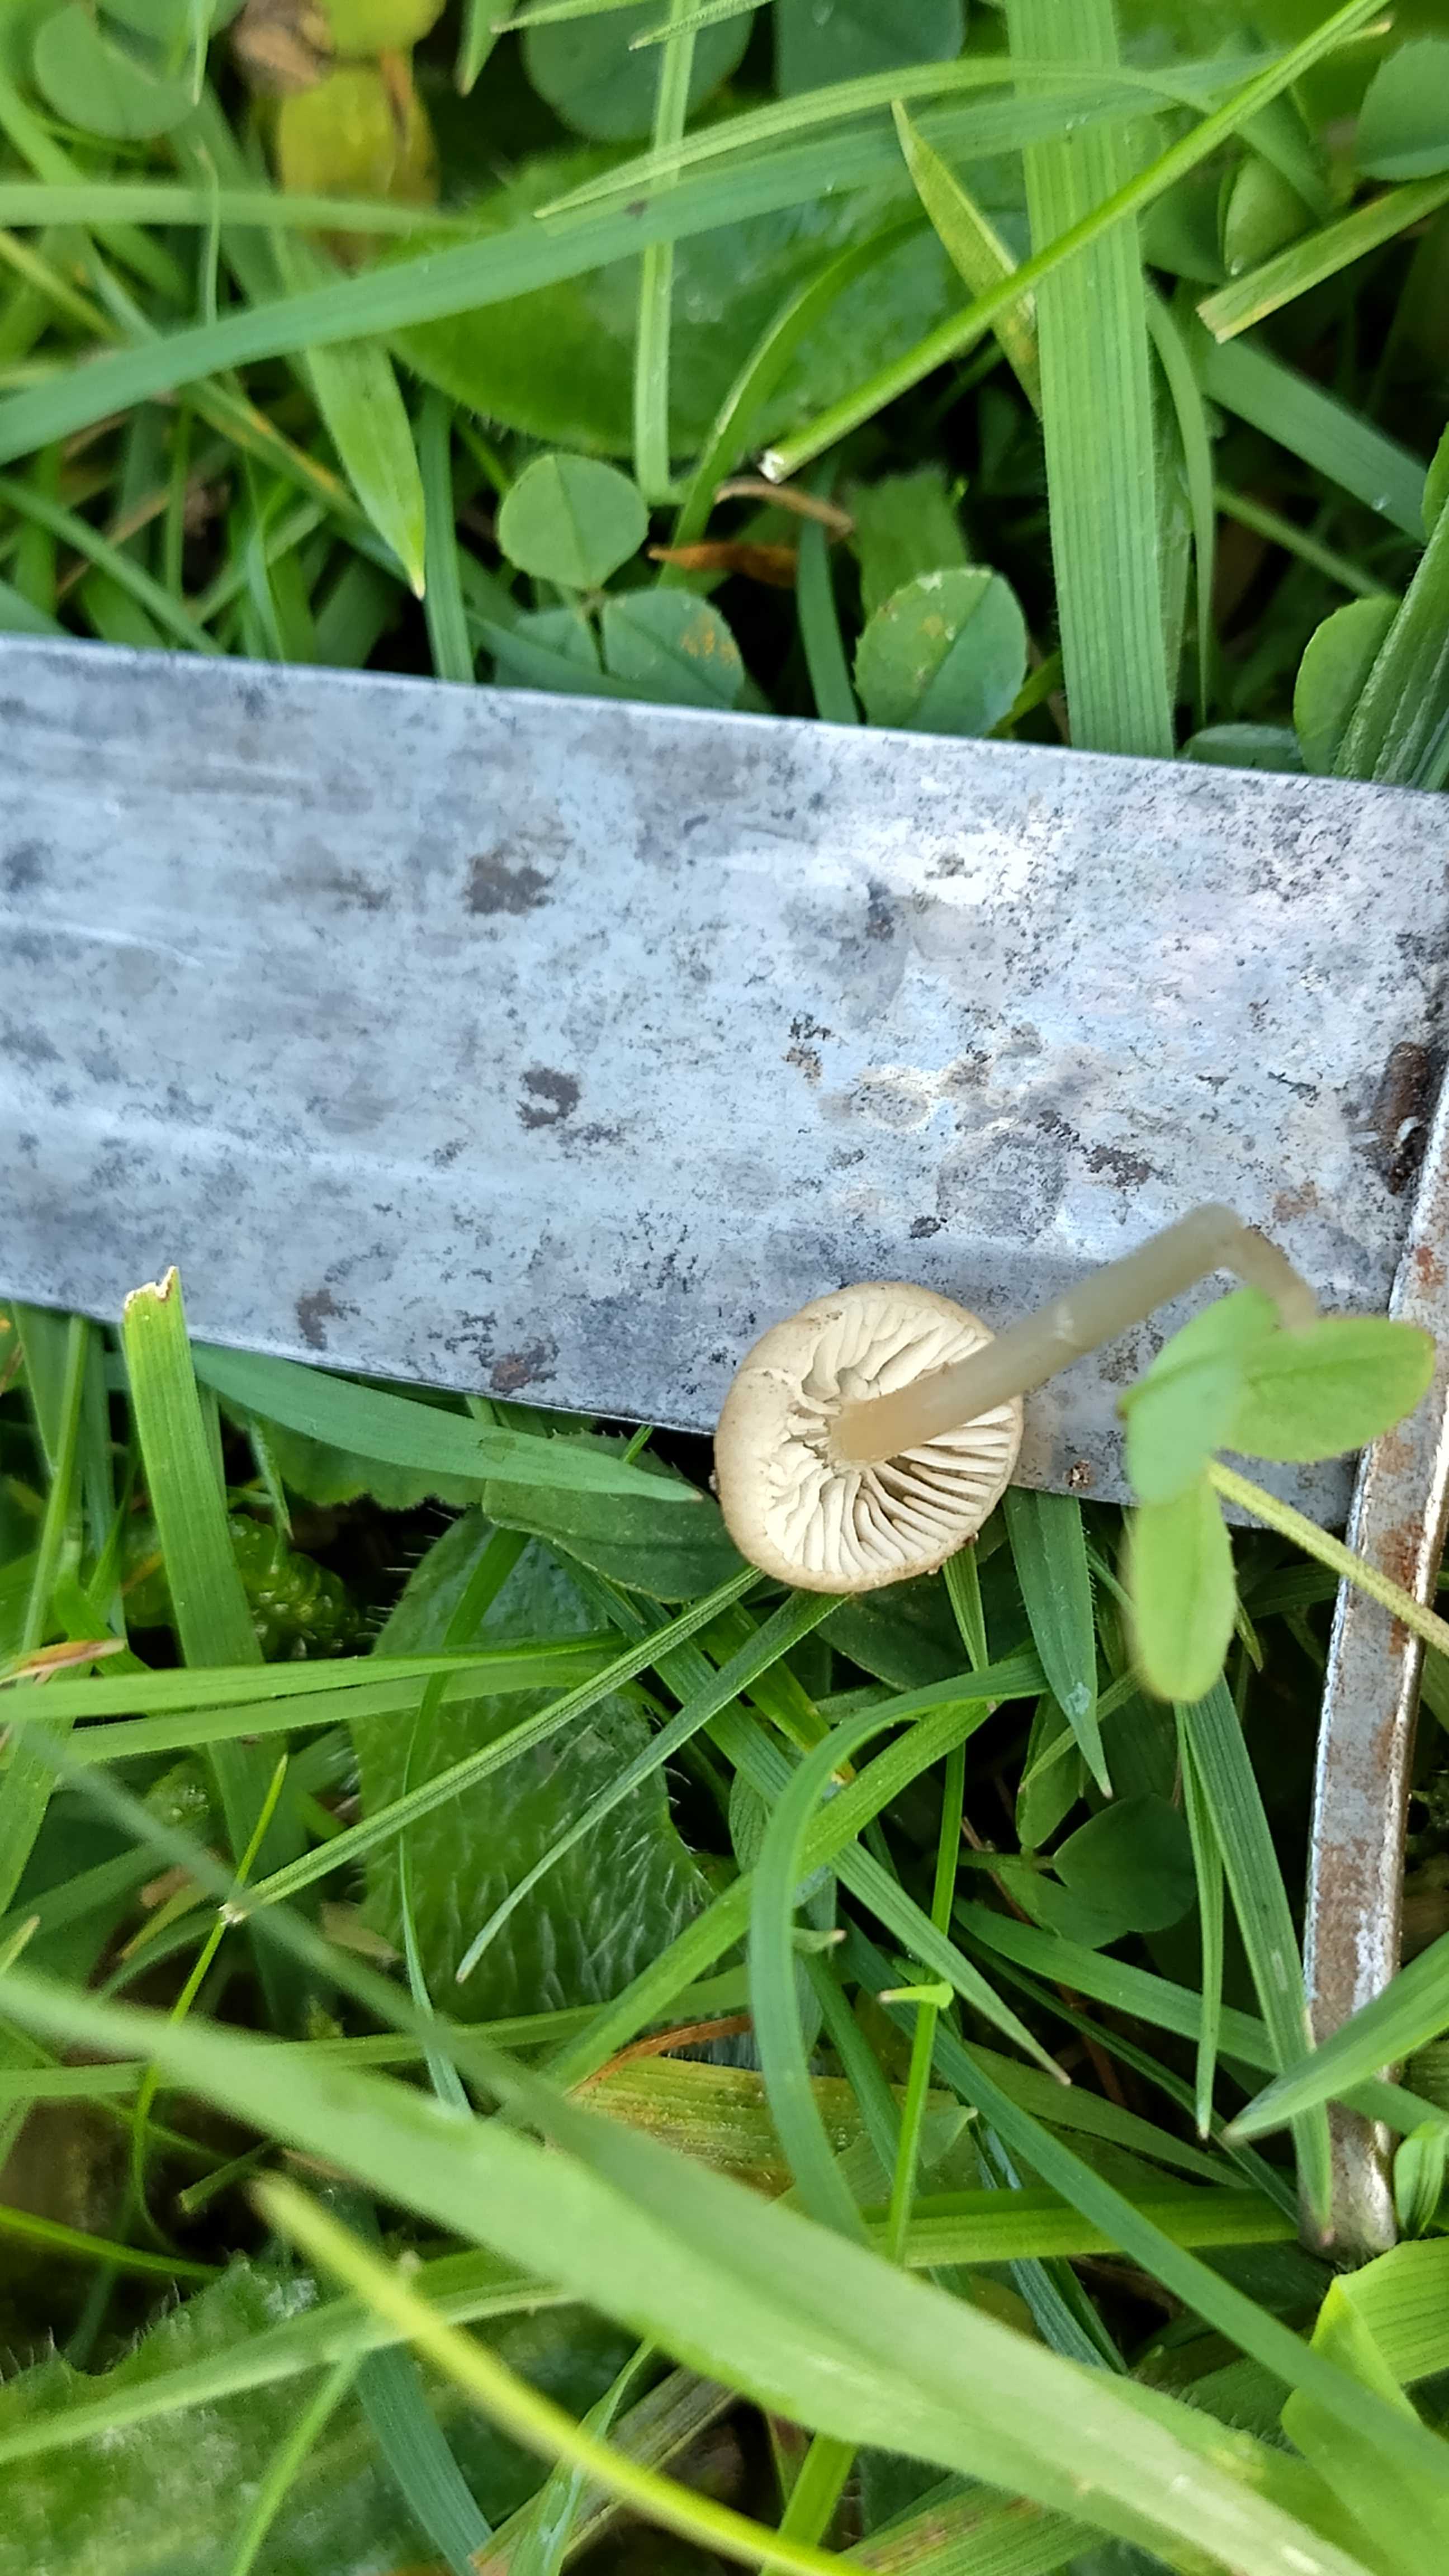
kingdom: Fungi
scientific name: Fungi
